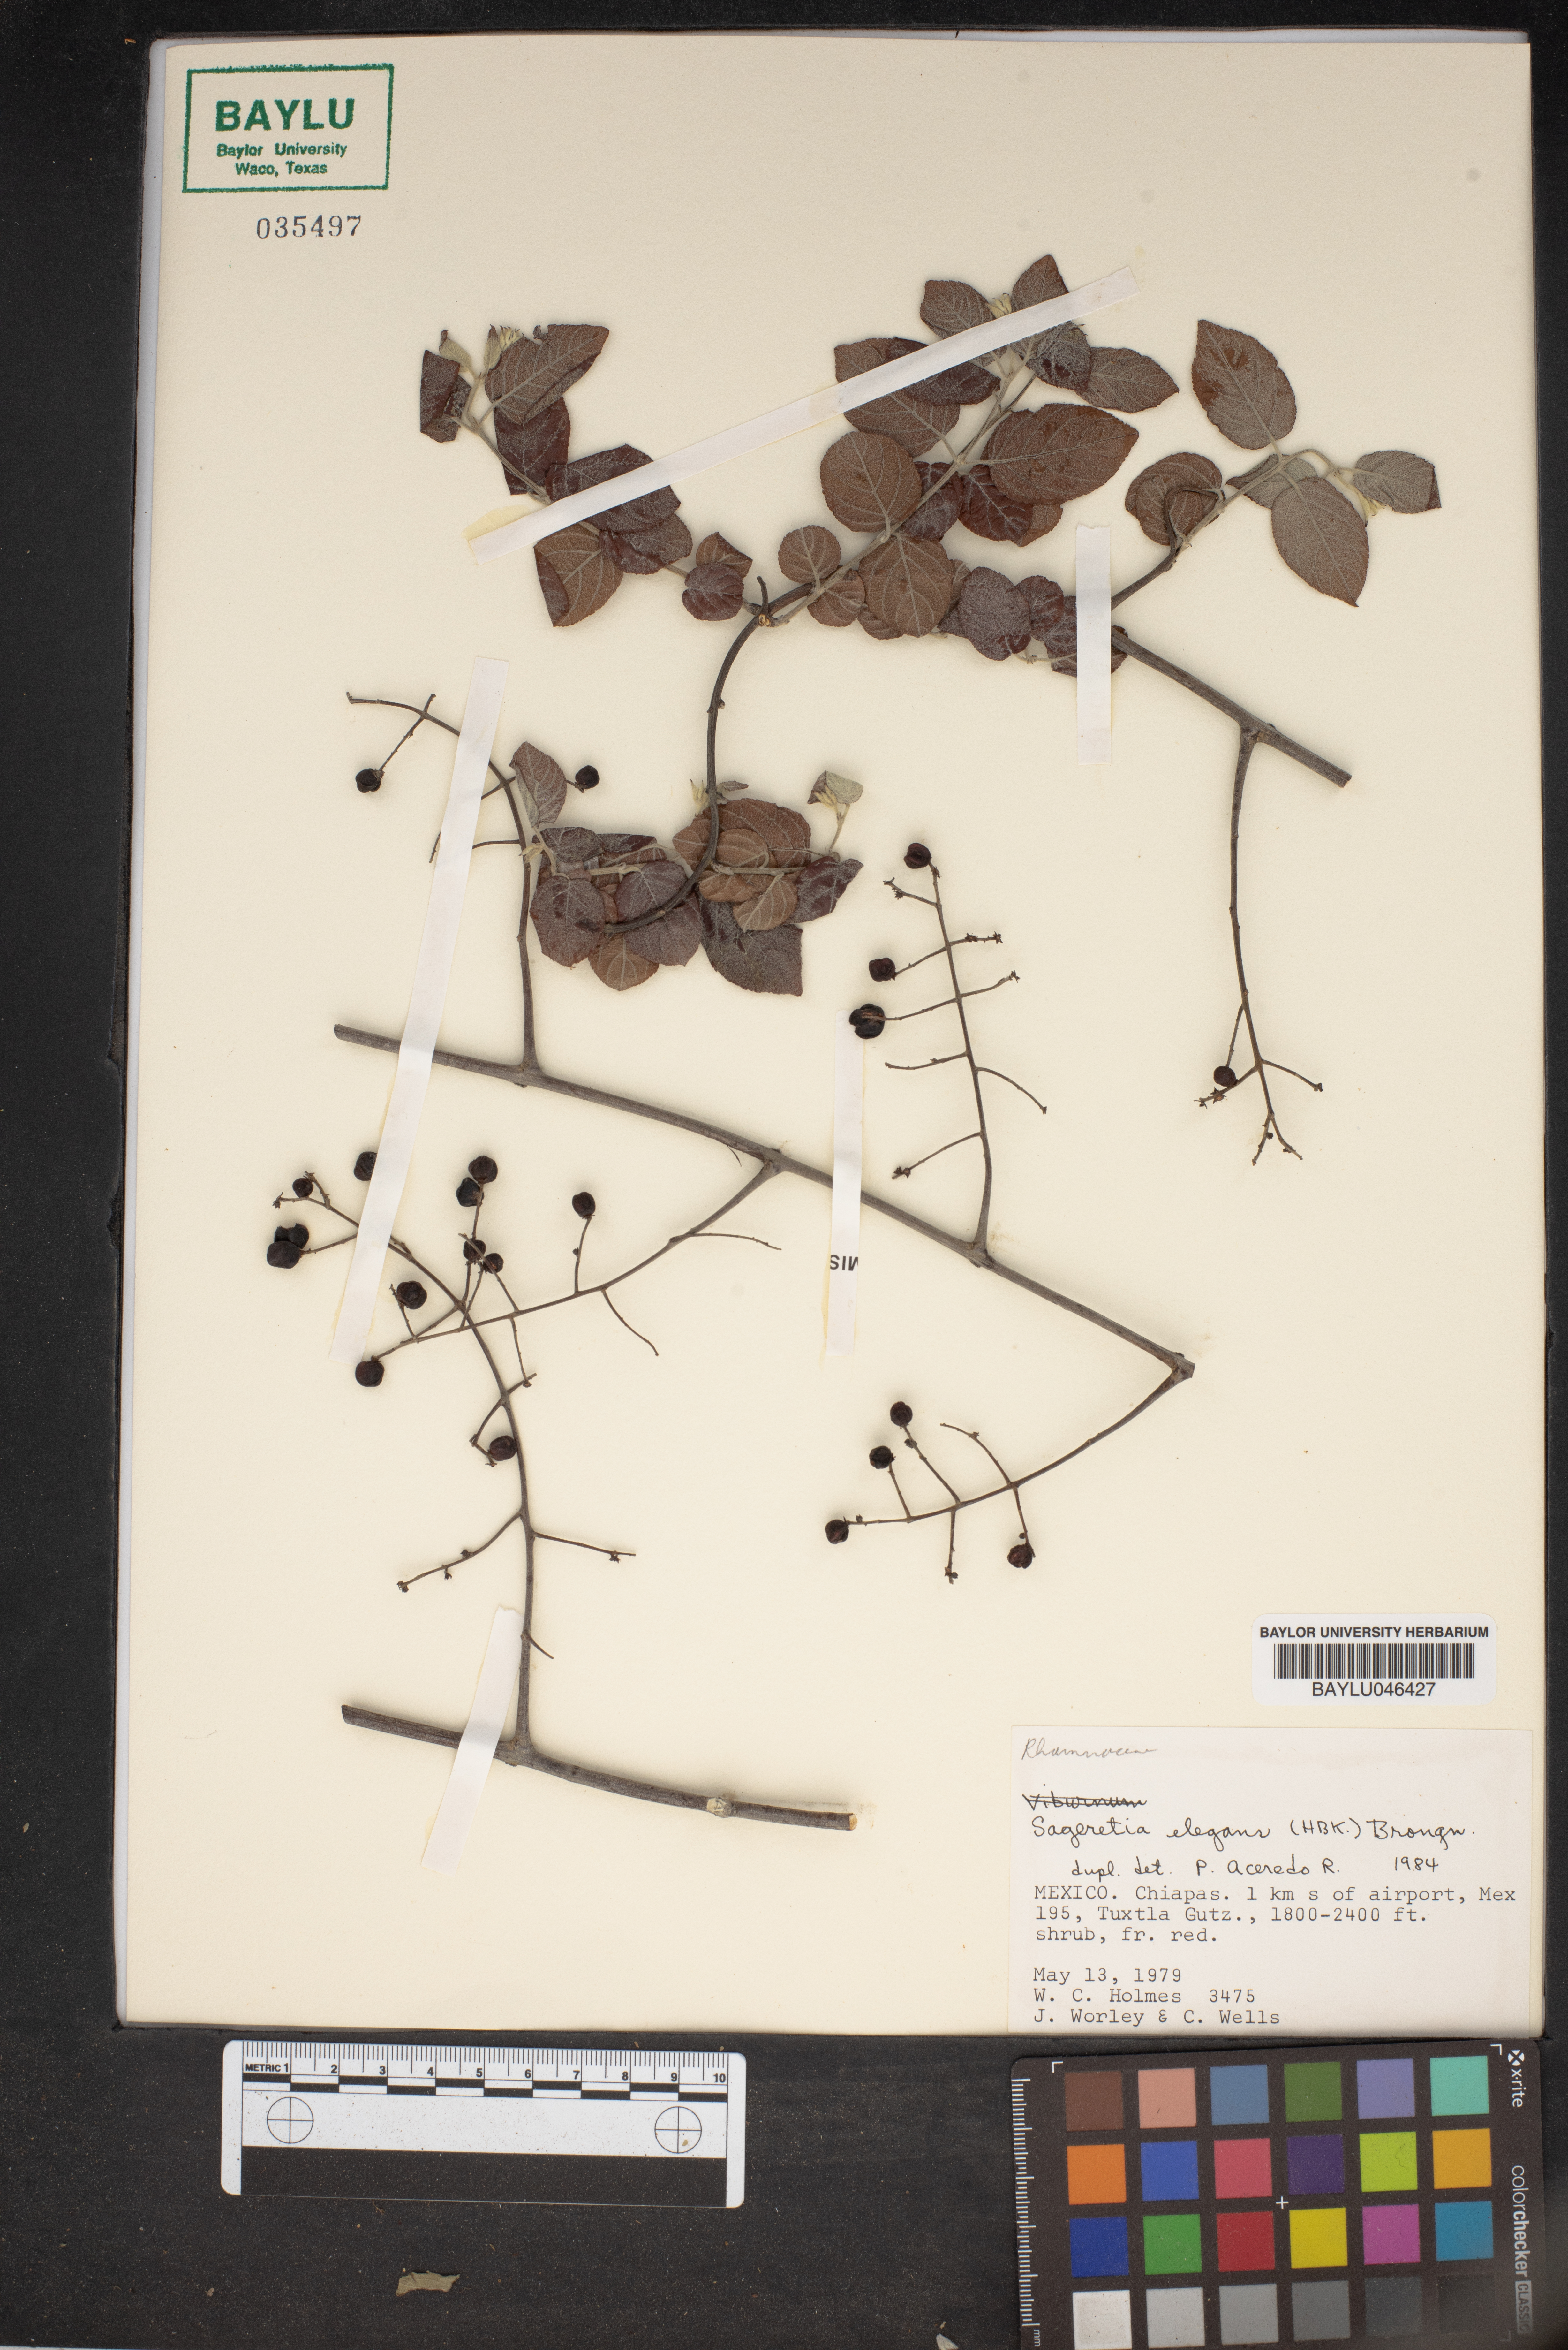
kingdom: Plantae
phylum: Tracheophyta
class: Magnoliopsida
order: Rosales
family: Rhamnaceae
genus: Sageretia
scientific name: Sageretia elegans
